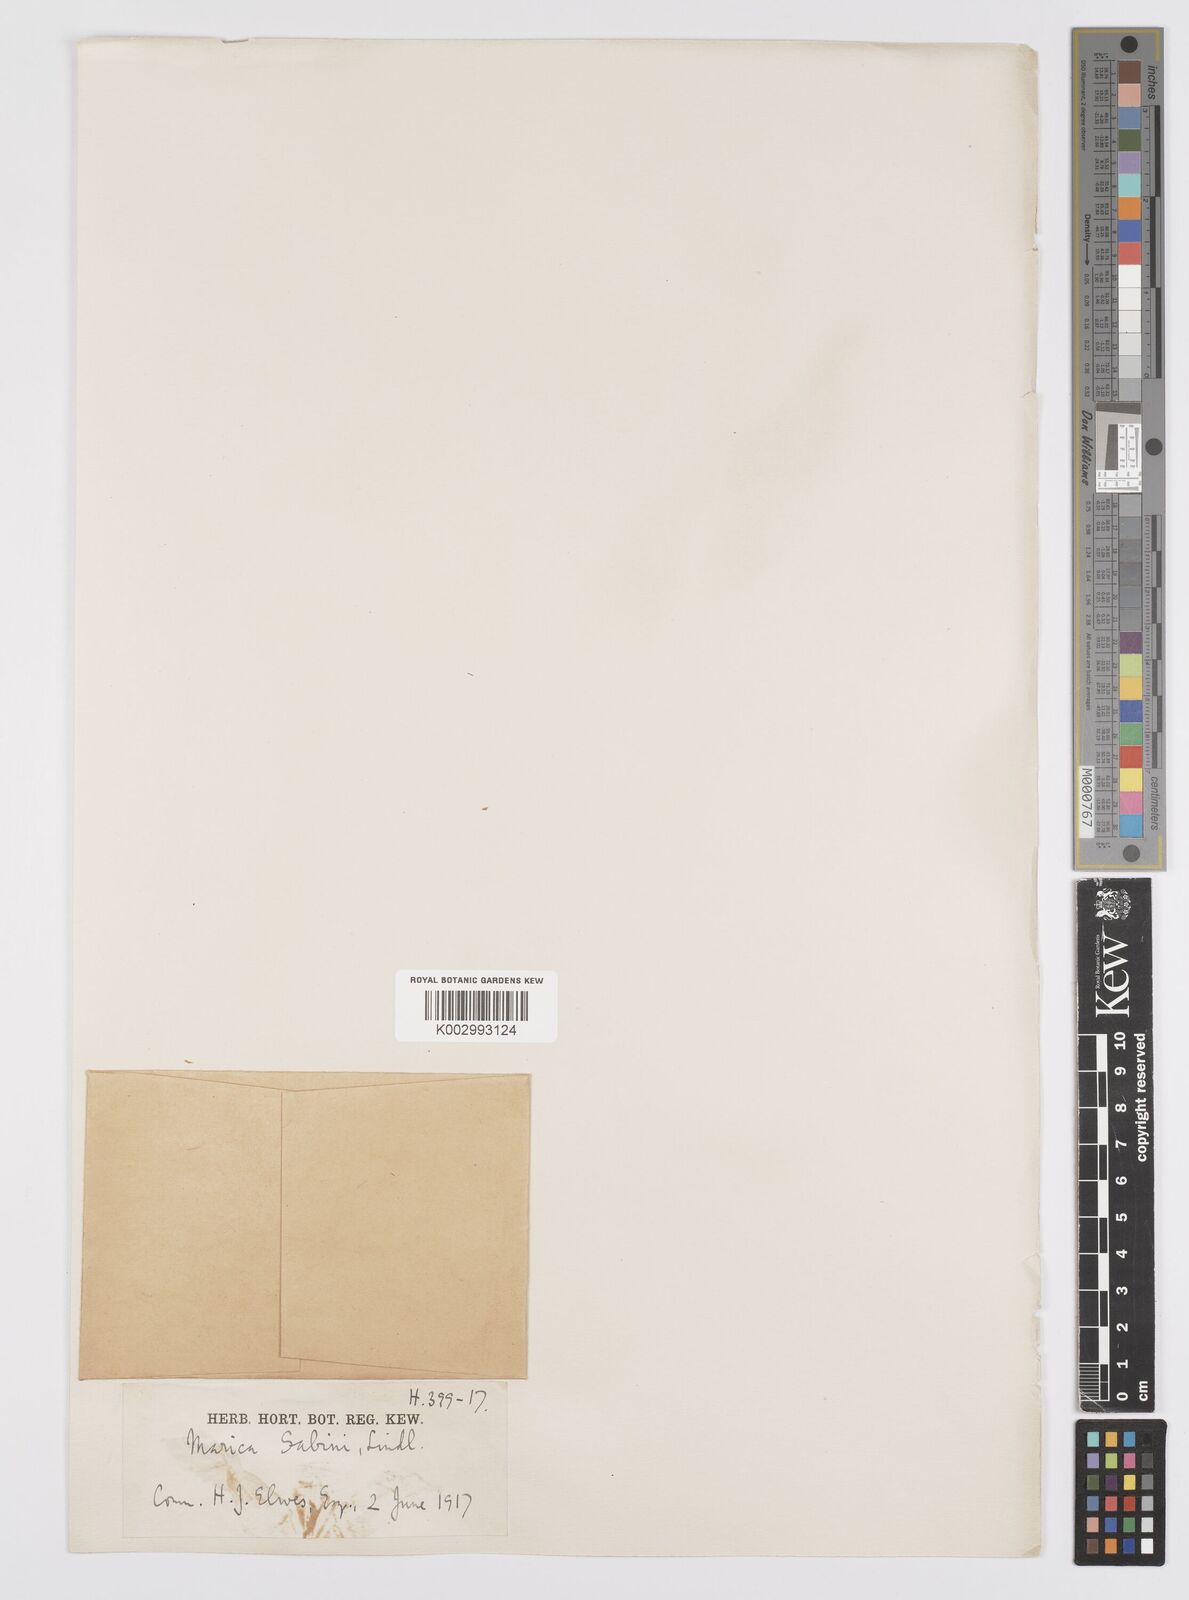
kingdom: Plantae
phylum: Tracheophyta
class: Liliopsida
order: Asparagales
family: Iridaceae
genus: Trimezia
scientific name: Trimezia sabini
